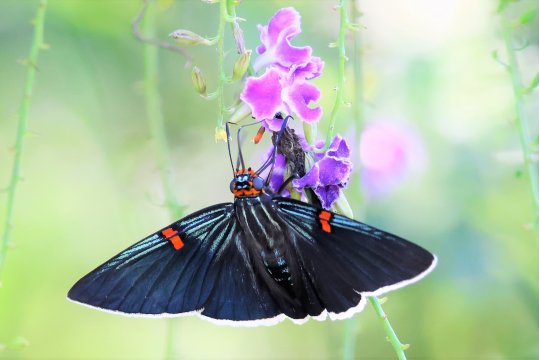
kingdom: Animalia
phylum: Arthropoda
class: Insecta
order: Lepidoptera
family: Hesperiidae
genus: Phocides
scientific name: Phocides polybius
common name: Guava Skipper
